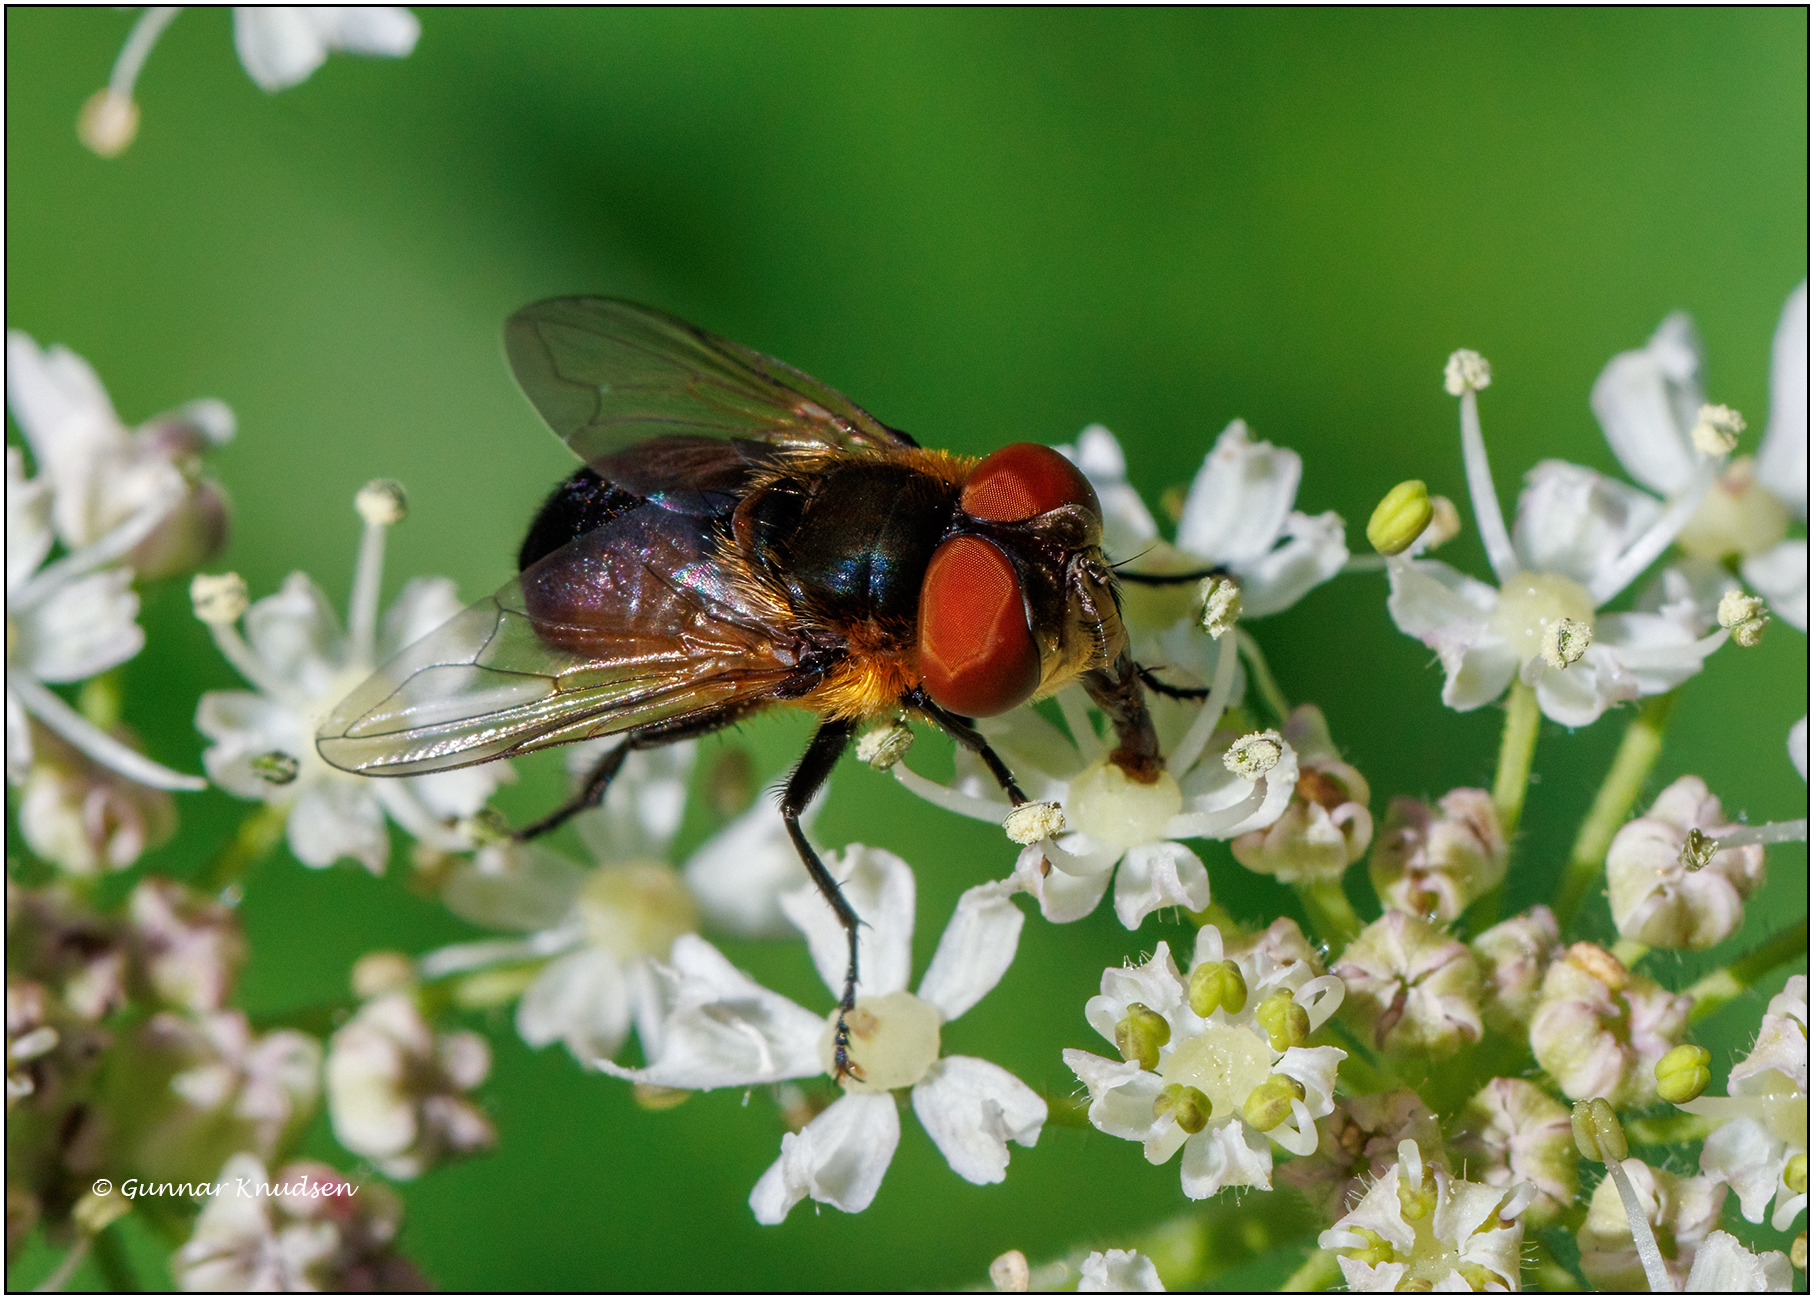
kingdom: Animalia
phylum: Arthropoda
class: Insecta
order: Diptera
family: Tachinidae
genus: Phasia
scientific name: Phasia hemiptera
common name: Blåvinget pragtsnylteflue
